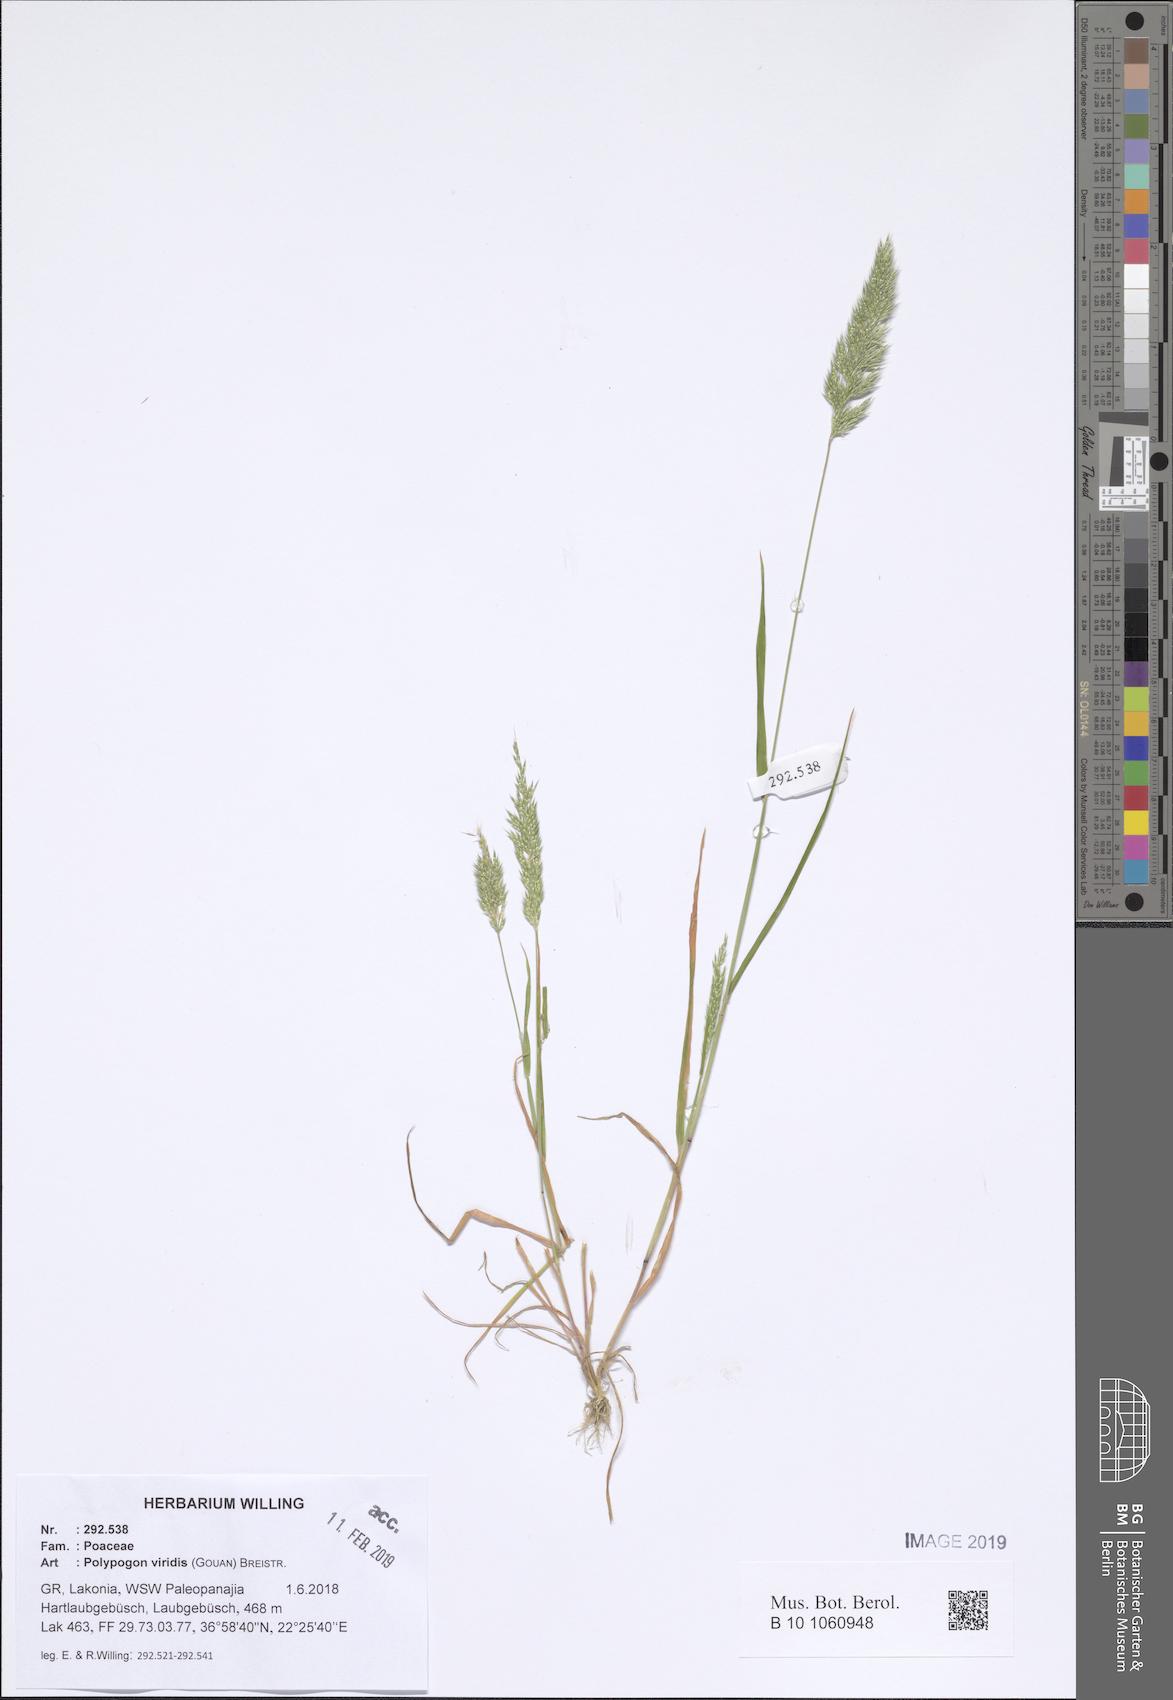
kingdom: Plantae
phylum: Tracheophyta
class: Liliopsida
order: Poales
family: Poaceae
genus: Polypogon
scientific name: Polypogon viridis
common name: Water bent
